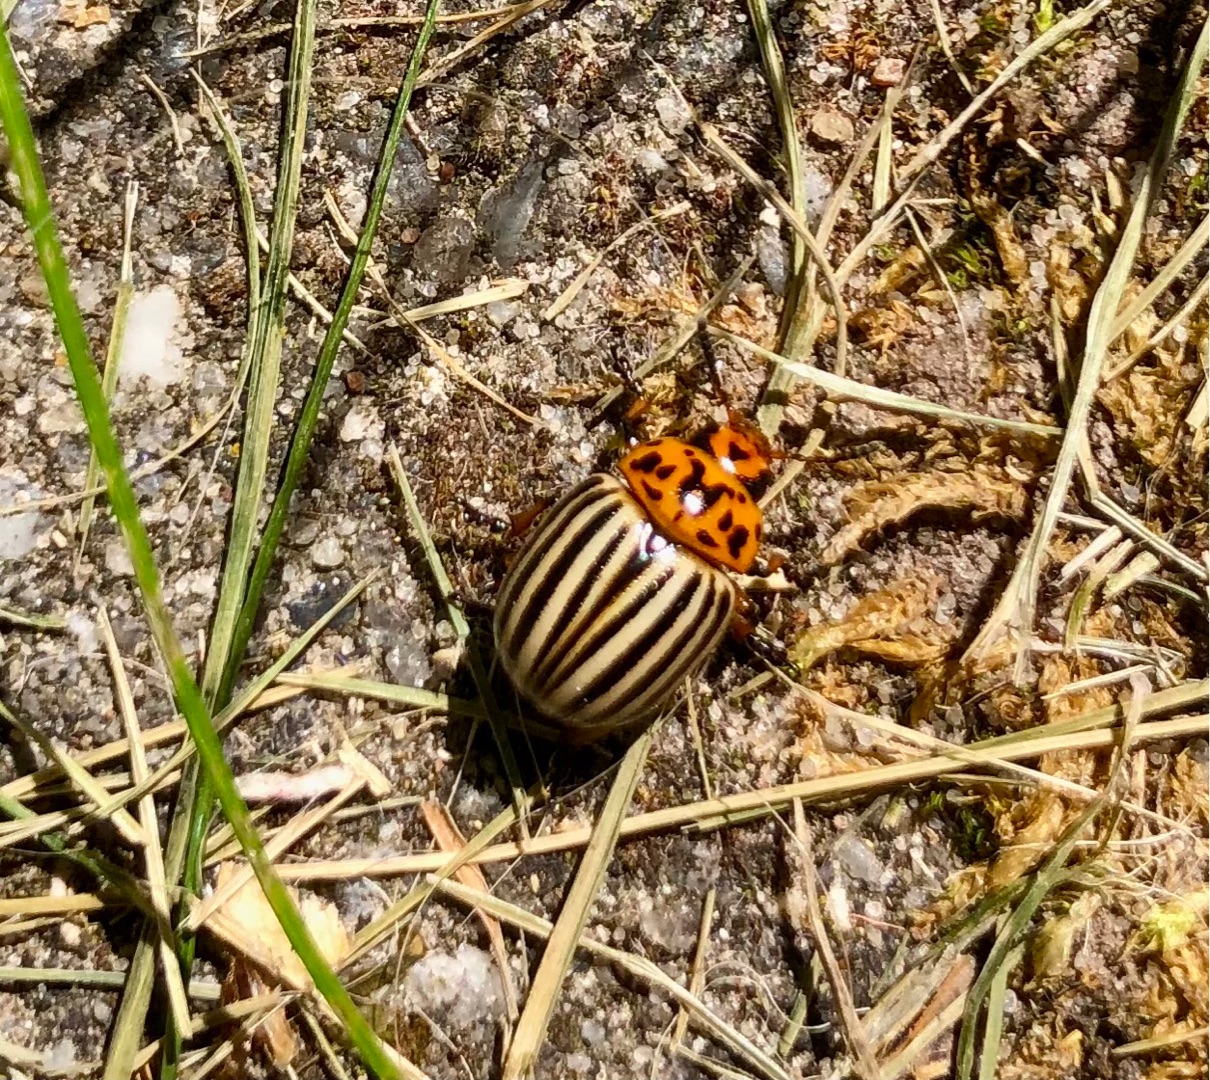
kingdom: Animalia
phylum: Arthropoda
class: Insecta
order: Coleoptera
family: Chrysomelidae
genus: Leptinotarsa
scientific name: Leptinotarsa decemlineata
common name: Coloradobille
